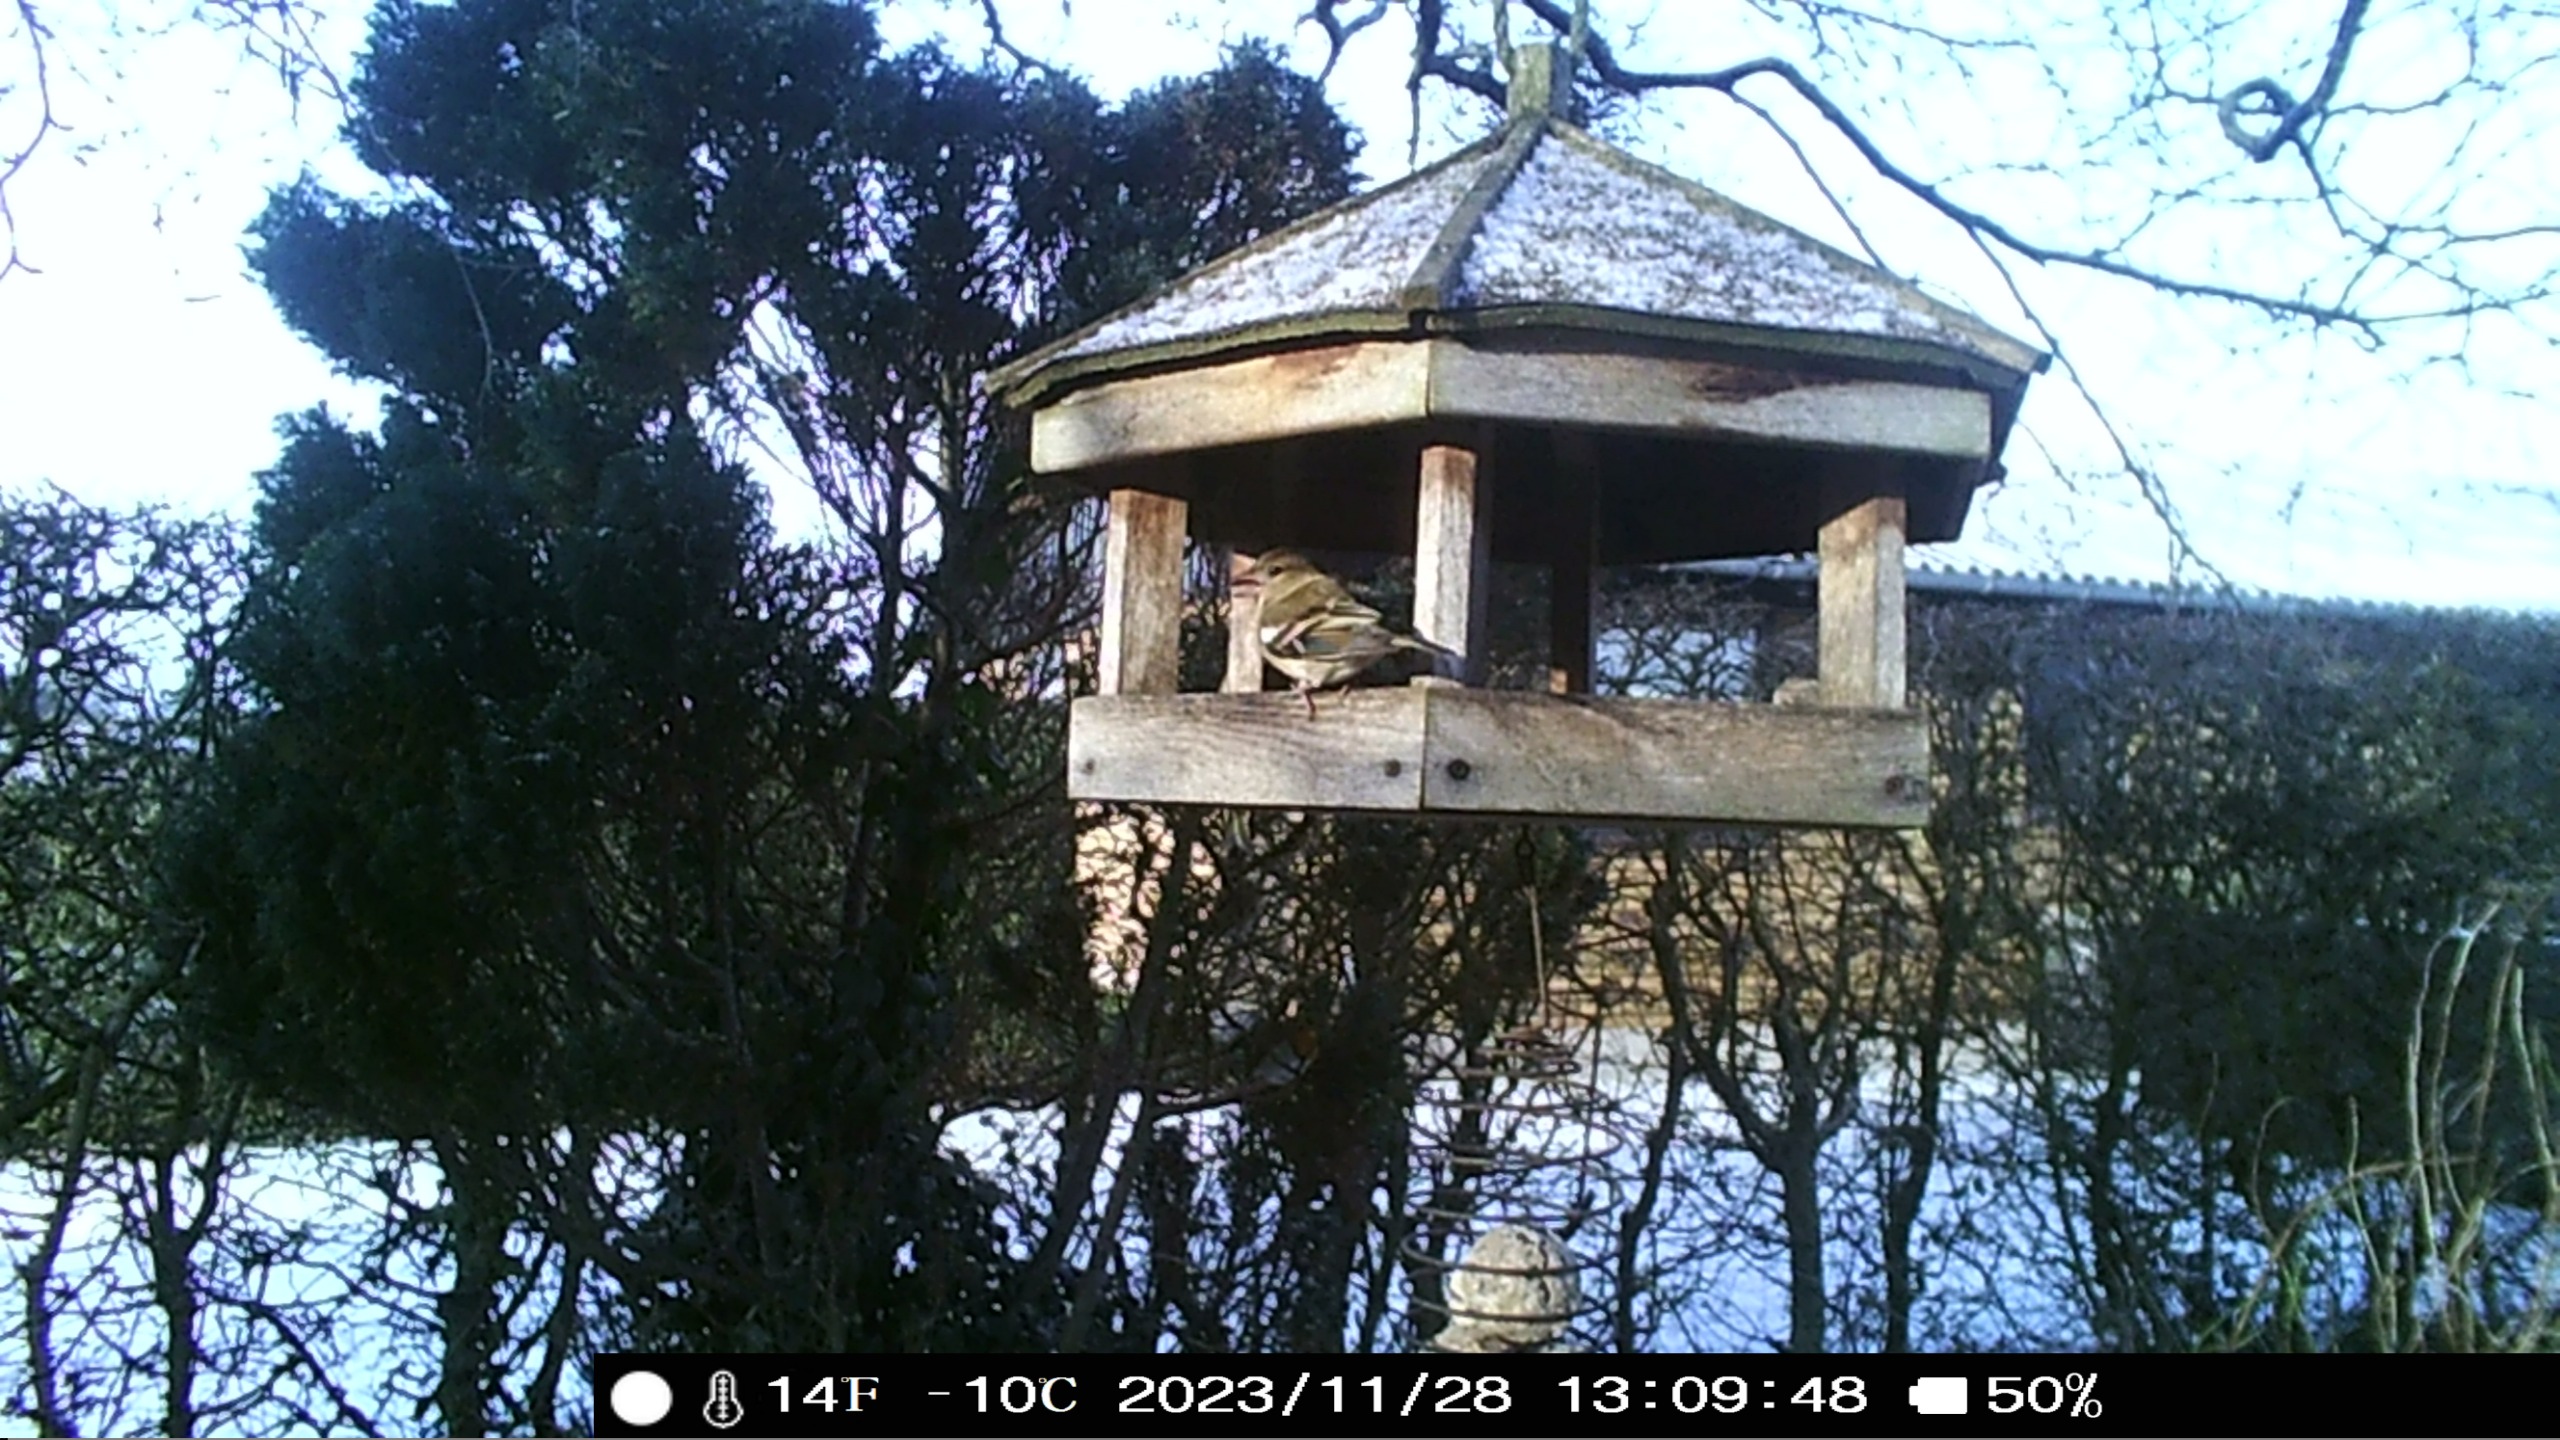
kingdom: Animalia
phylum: Chordata
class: Aves
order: Passeriformes
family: Fringillidae
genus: Fringilla
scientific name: Fringilla coelebs
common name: Bogfinke
